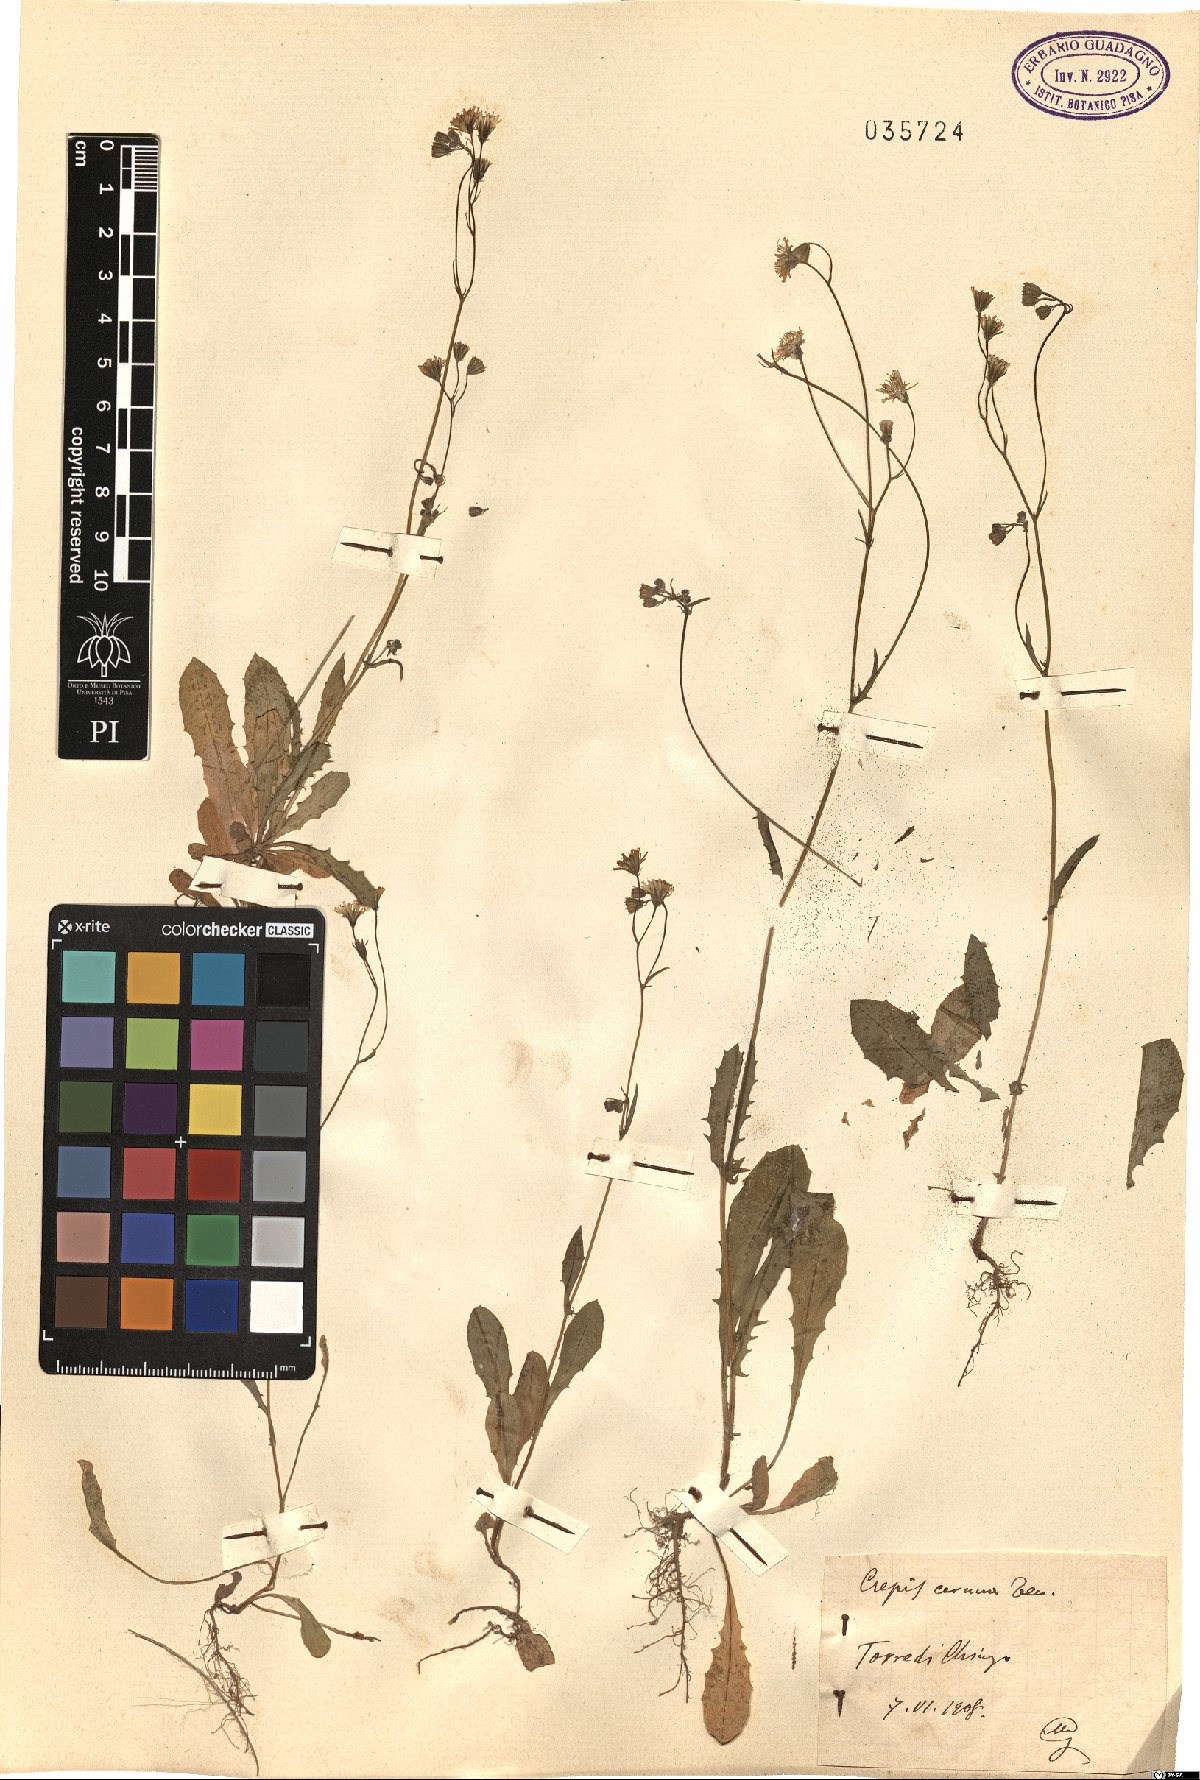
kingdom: Plantae
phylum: Tracheophyta
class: Magnoliopsida
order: Asterales
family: Asteraceae
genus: Crepis
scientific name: Crepis neglecta
